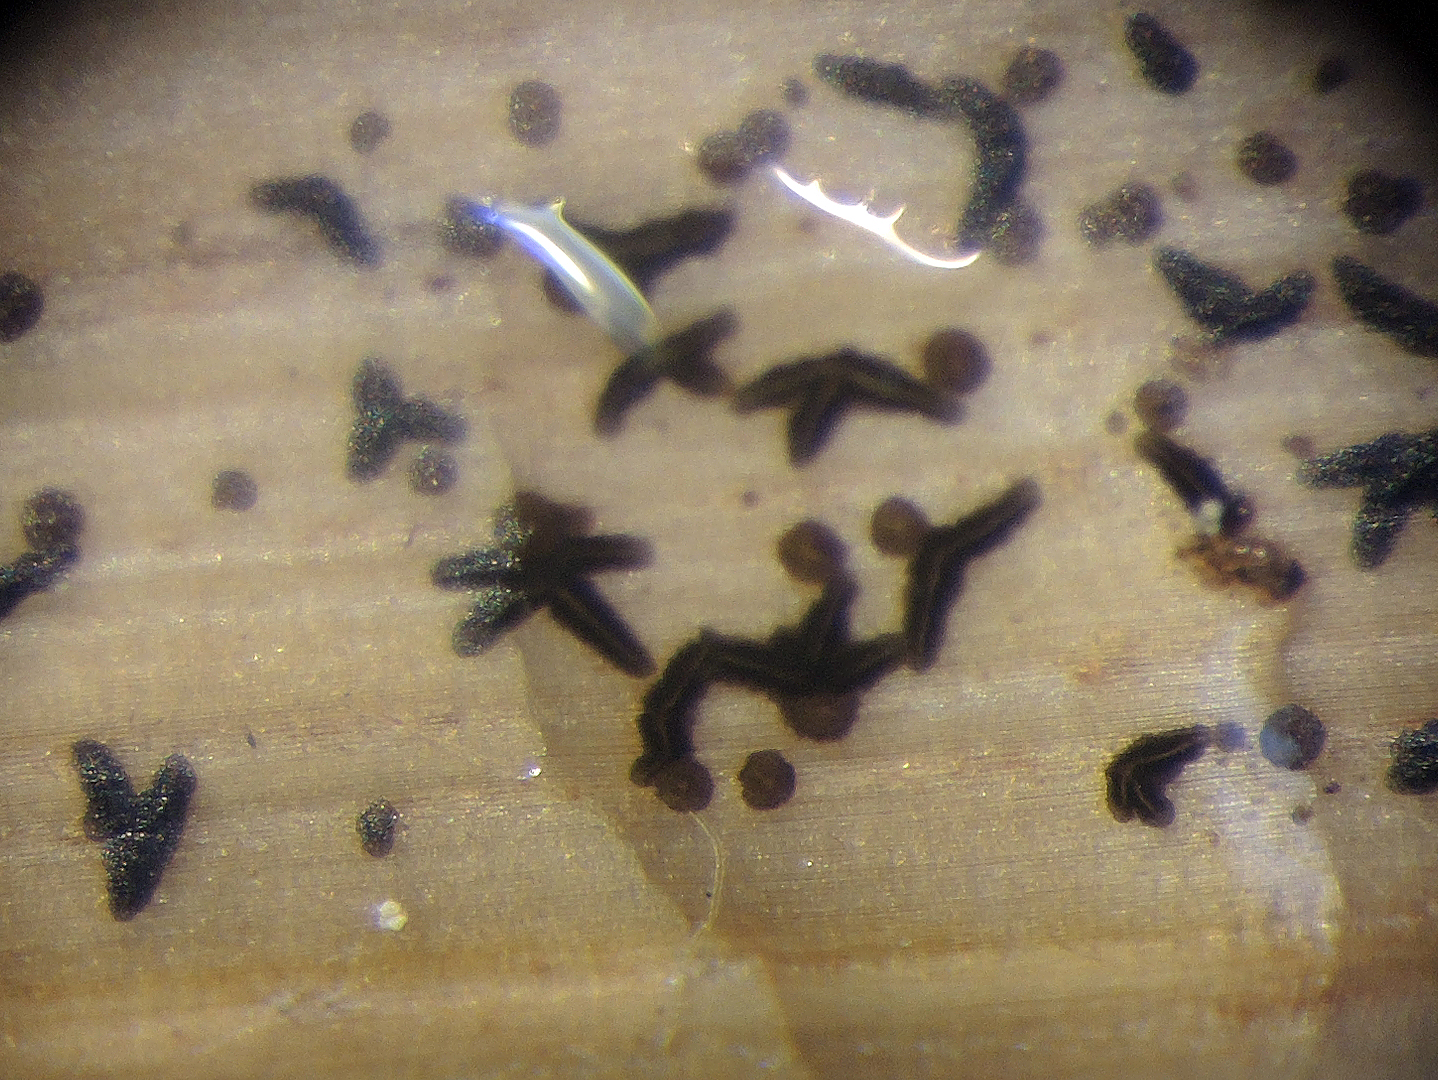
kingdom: Fungi
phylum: Ascomycota
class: Dothideomycetes
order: Asterinales
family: Asterinaceae
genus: Morenoina
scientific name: Morenoina phragmitis
